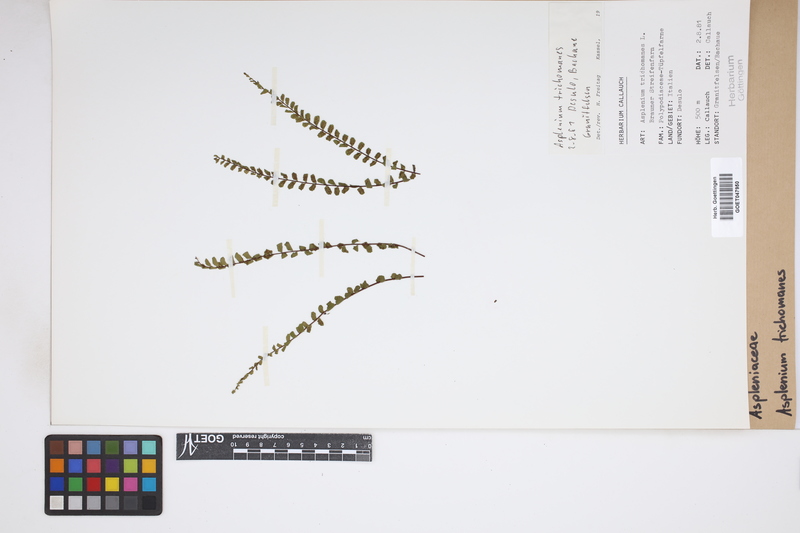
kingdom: Plantae
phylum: Tracheophyta
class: Polypodiopsida
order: Polypodiales
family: Aspleniaceae
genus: Asplenium
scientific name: Asplenium trichomanes
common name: Maidenhair spleenwort
